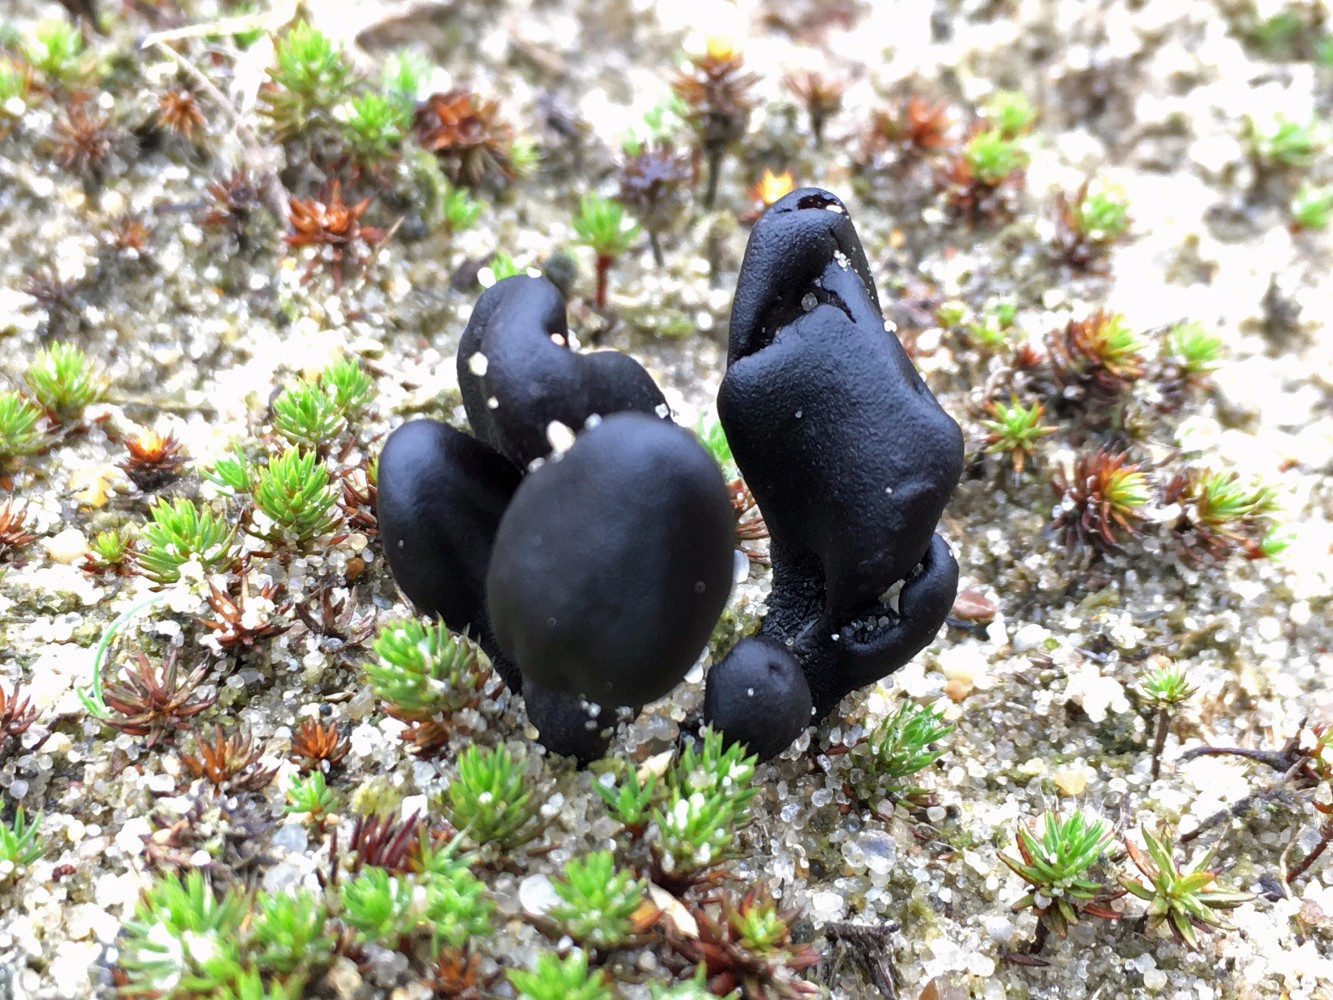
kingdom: Fungi
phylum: Ascomycota
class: Geoglossomycetes
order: Geoglossales
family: Geoglossaceae
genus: Sabuloglossum
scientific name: Sabuloglossum arenarium
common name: klit-jordtunge
